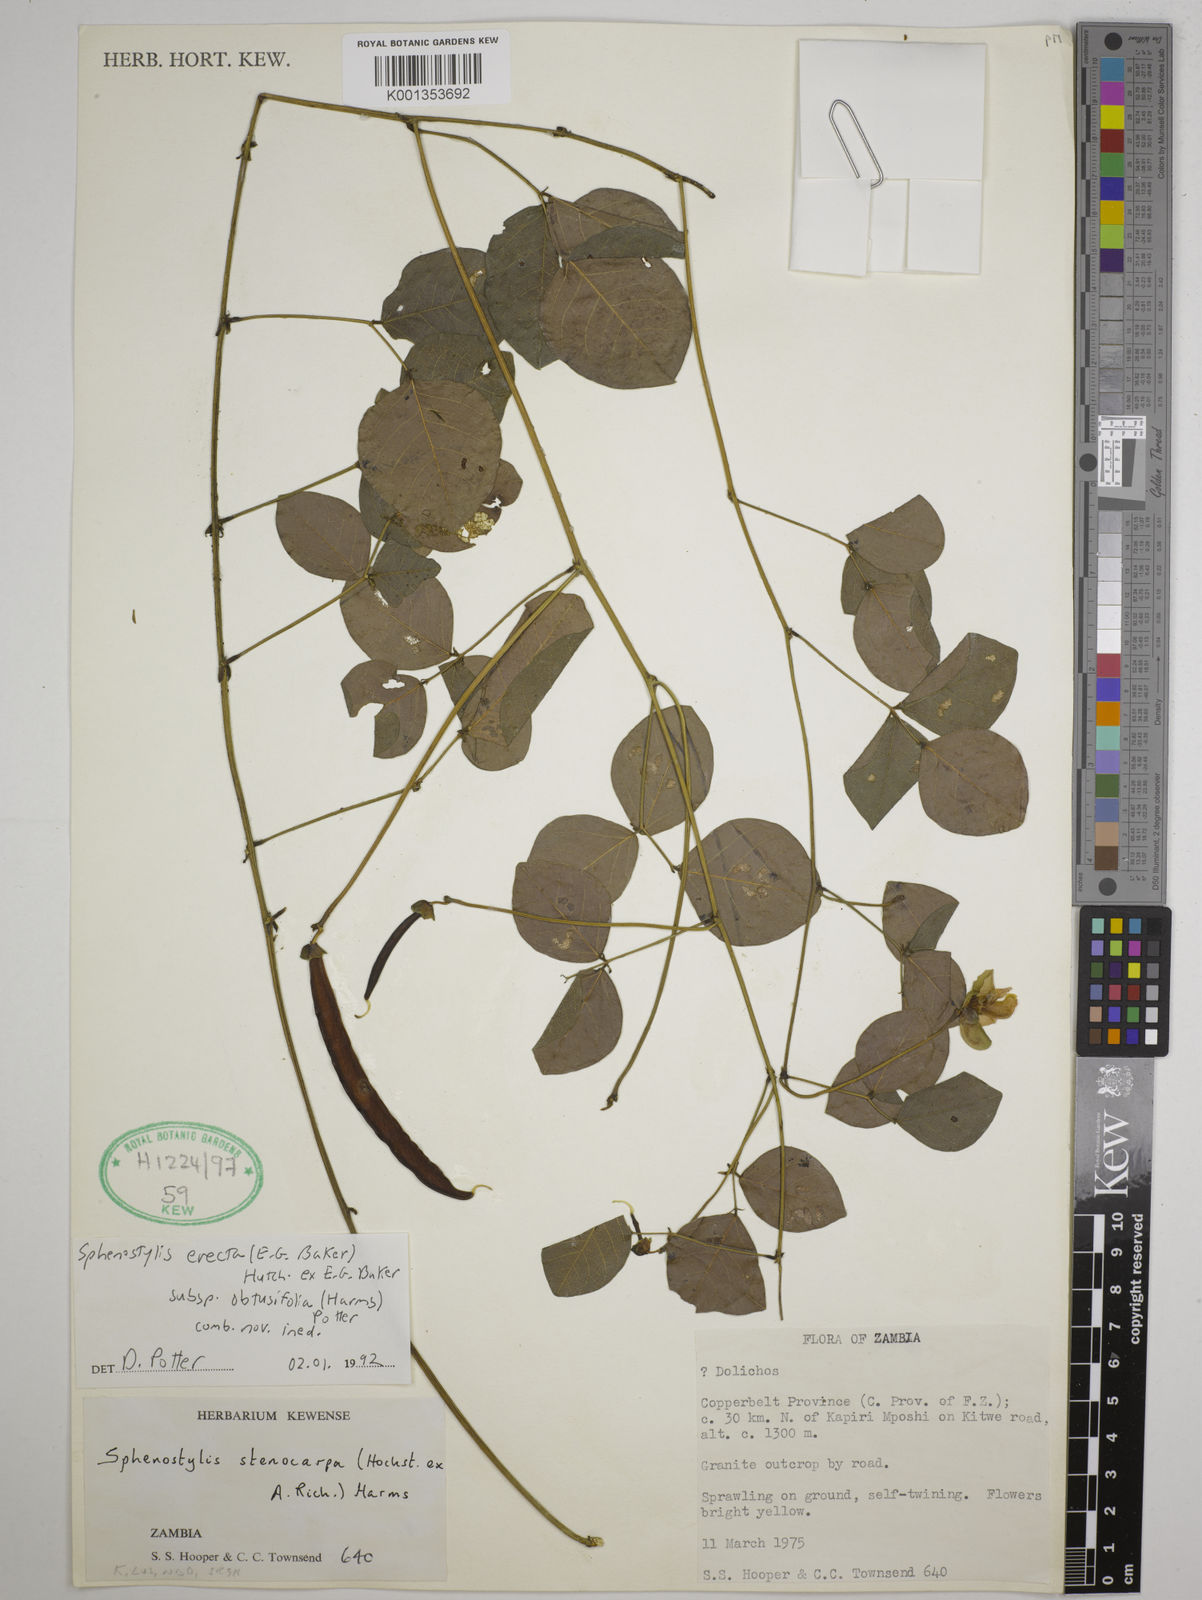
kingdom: Plantae
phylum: Tracheophyta
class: Magnoliopsida
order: Fabales
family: Fabaceae
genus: Sphenostylis
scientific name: Sphenostylis erecta
